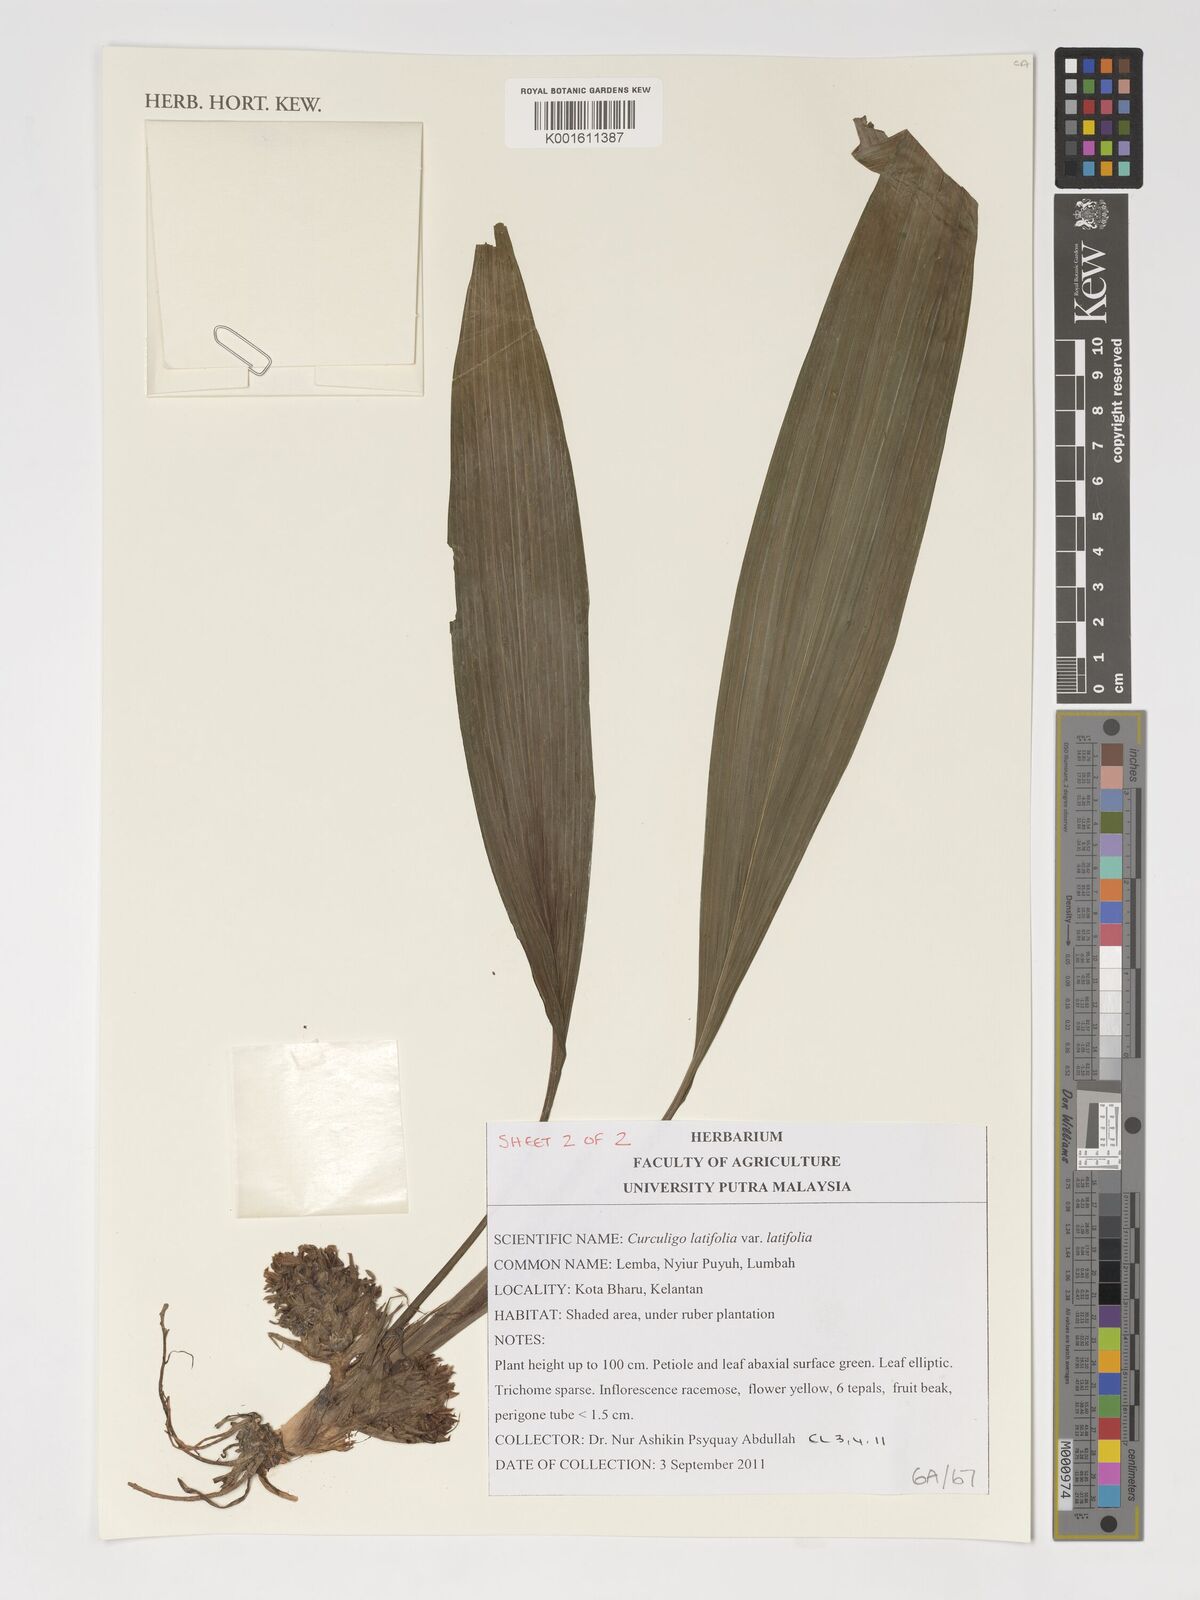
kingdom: Plantae
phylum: Tracheophyta
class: Liliopsida
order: Asparagales
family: Hypoxidaceae
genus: Curculigo
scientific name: Curculigo latifolia
